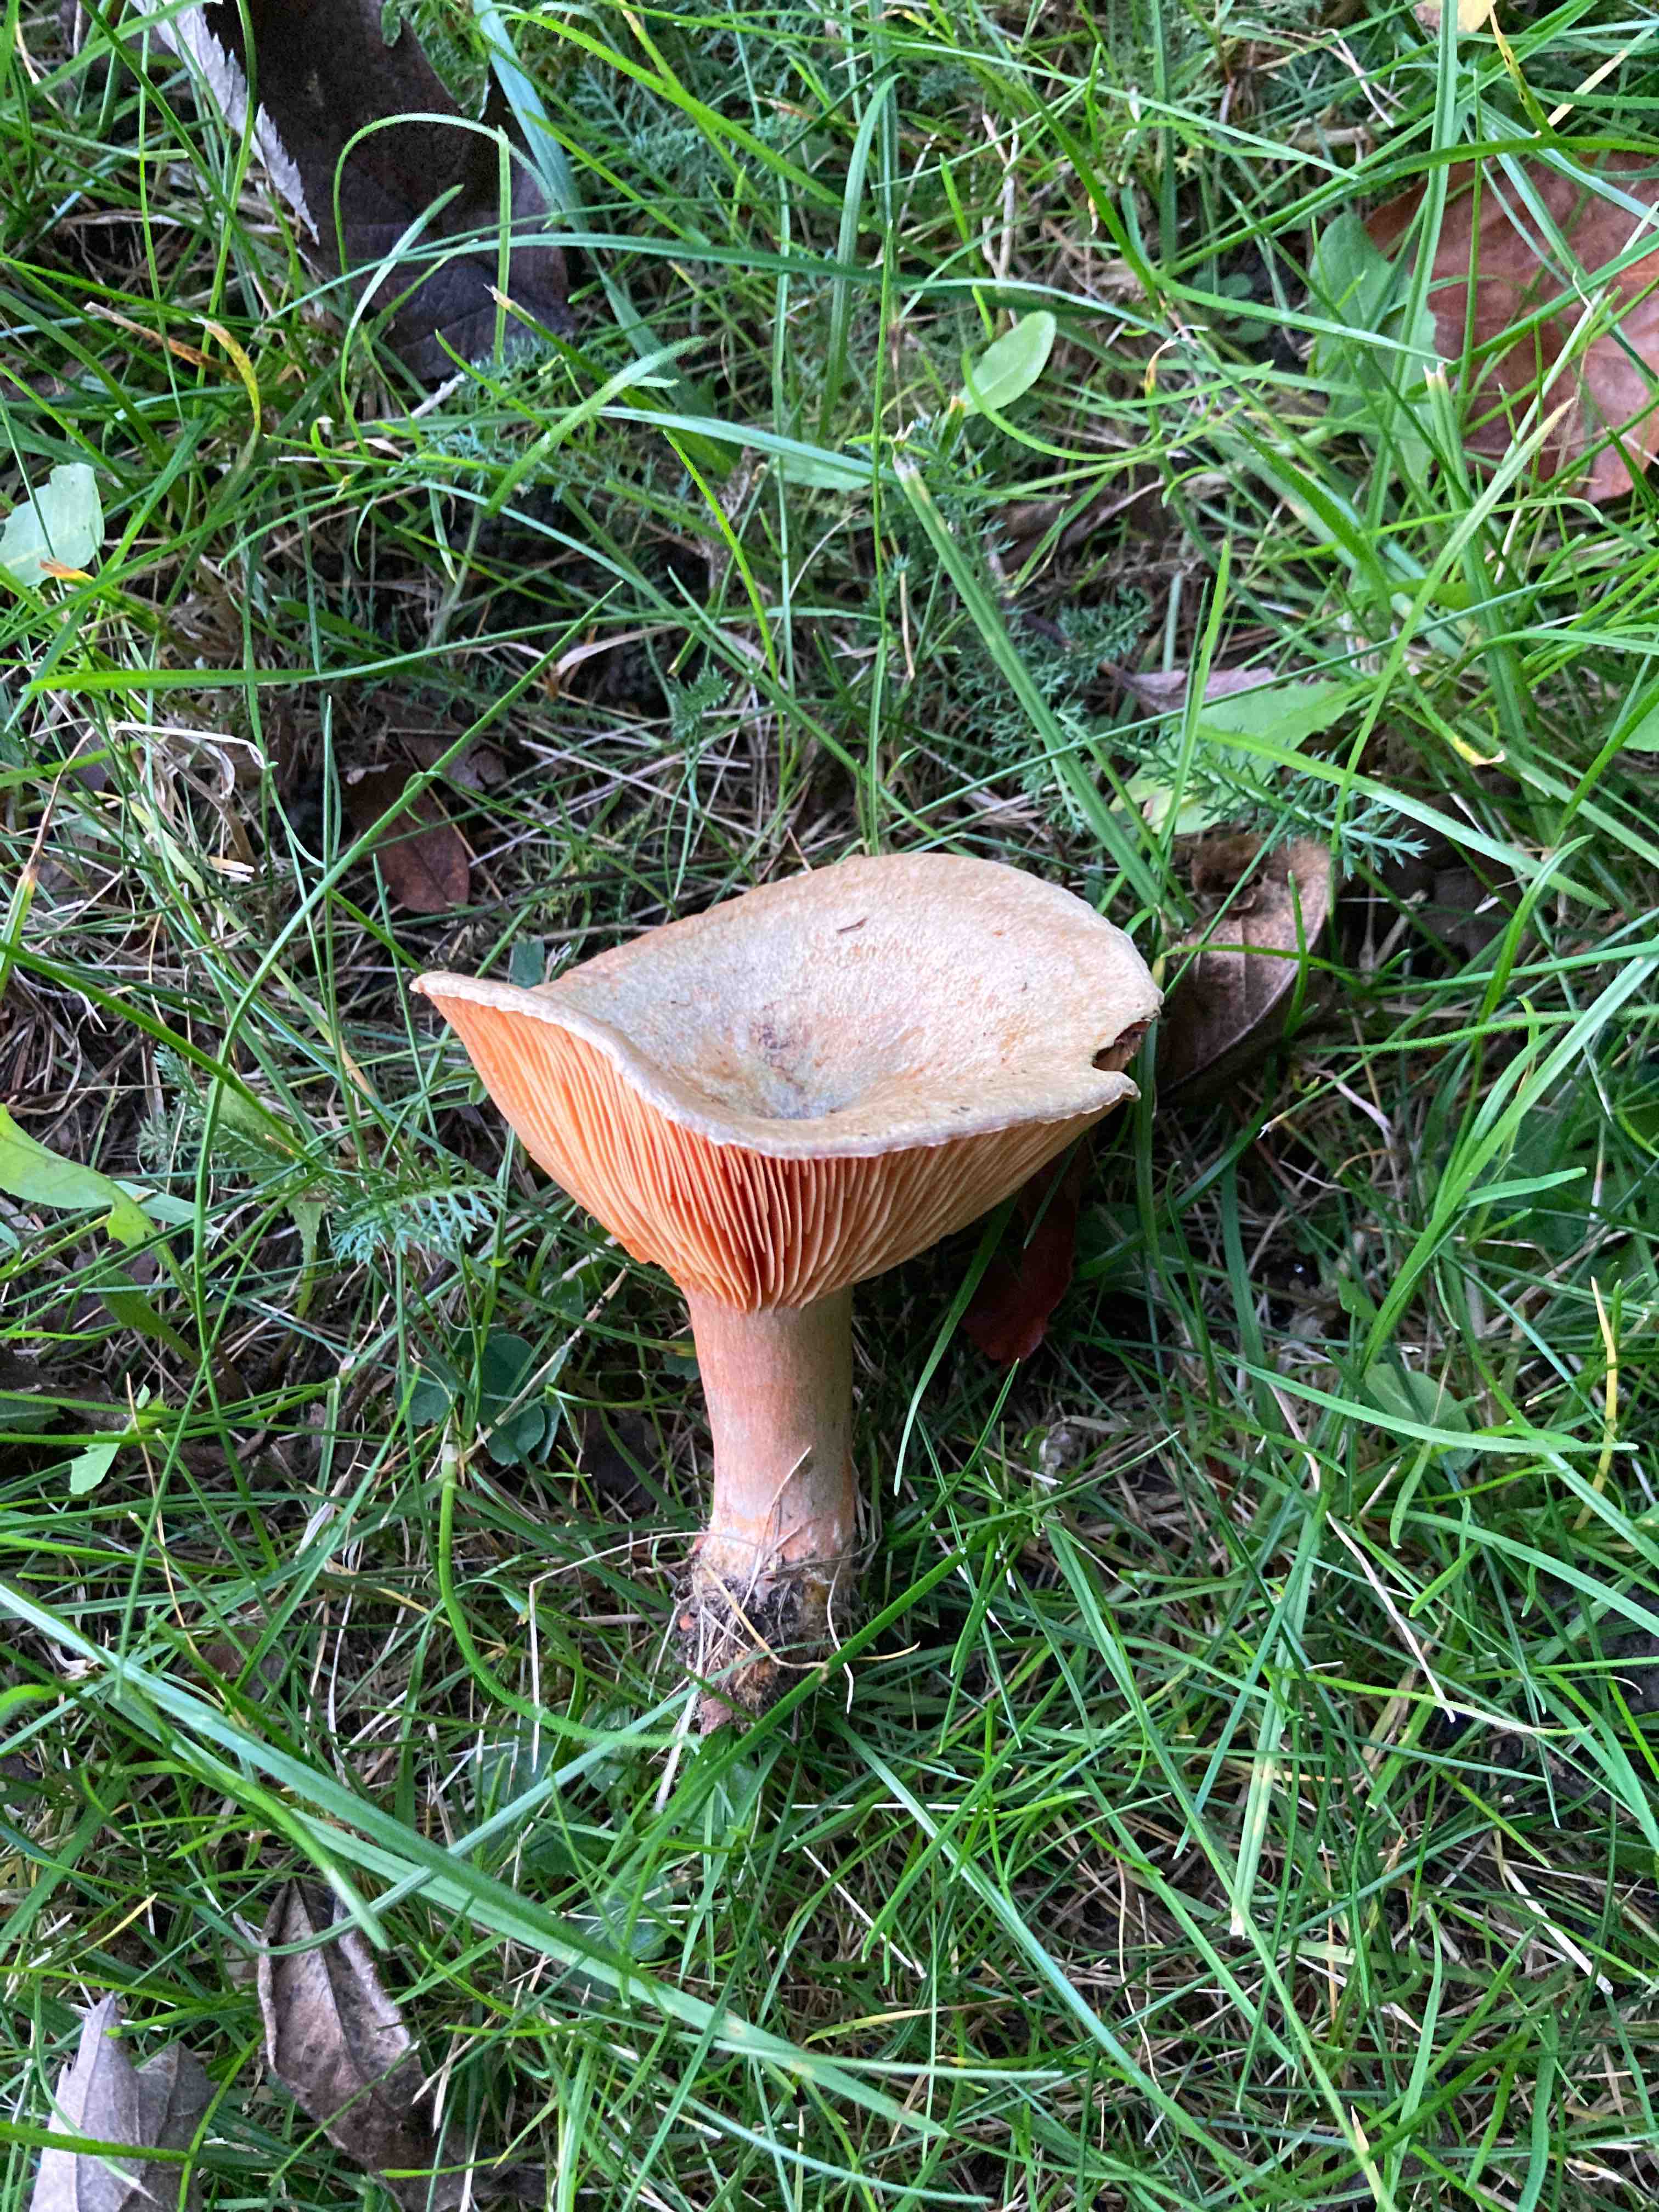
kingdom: Fungi
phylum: Basidiomycota
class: Agaricomycetes
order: Russulales
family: Russulaceae
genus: Lactarius
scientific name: Lactarius deterrimus
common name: gran-mælkehat
